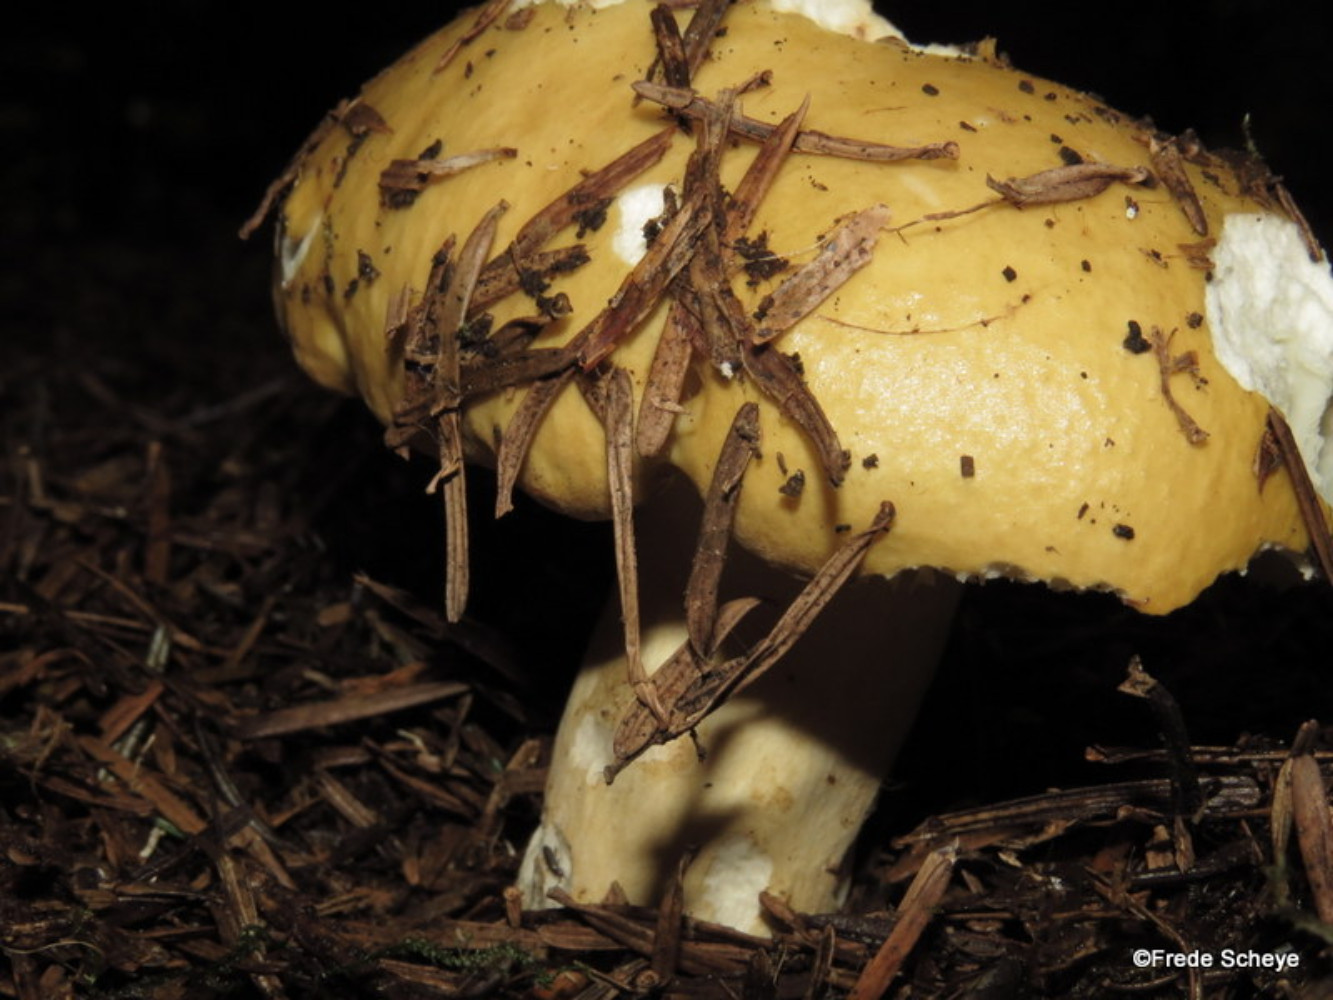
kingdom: Fungi
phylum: Basidiomycota
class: Agaricomycetes
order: Russulales
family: Russulaceae
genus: Russula
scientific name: Russula ochroleuca
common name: okkergul skørhat
